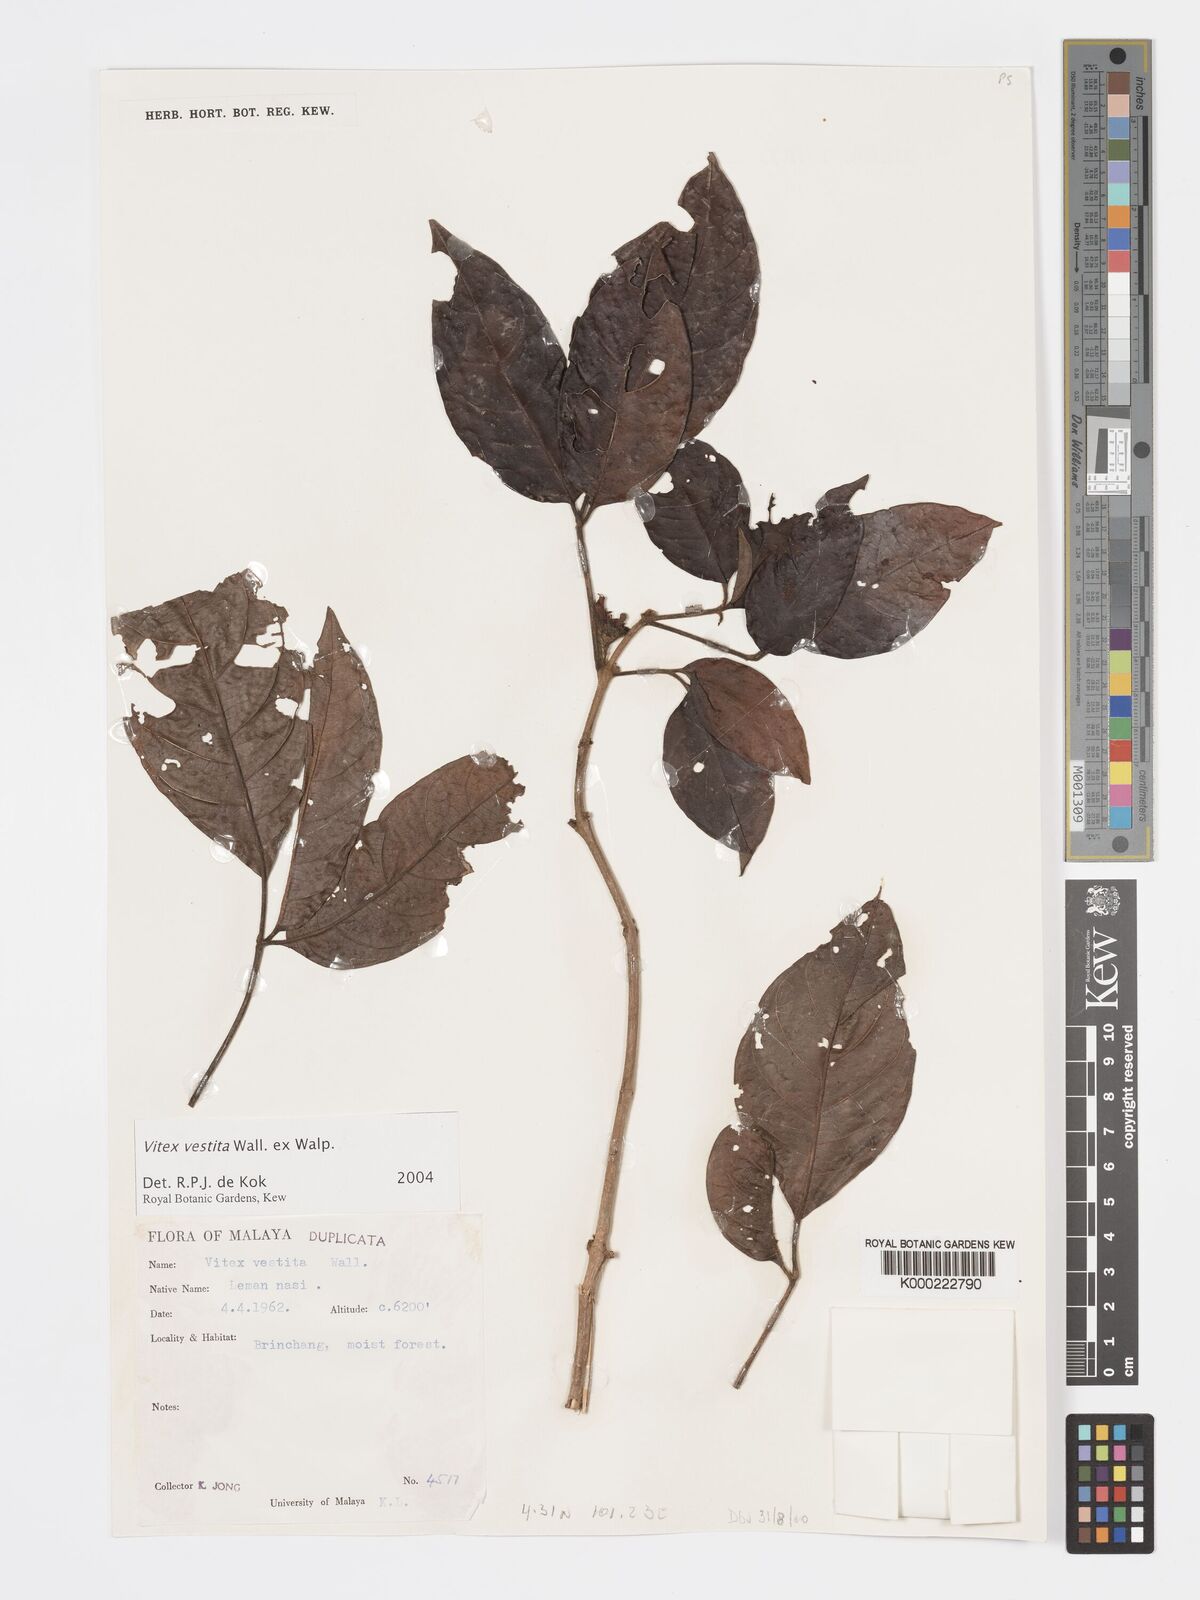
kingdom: Plantae
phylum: Tracheophyta
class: Magnoliopsida
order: Lamiales
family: Lamiaceae
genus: Vitex
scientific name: Vitex vestita
